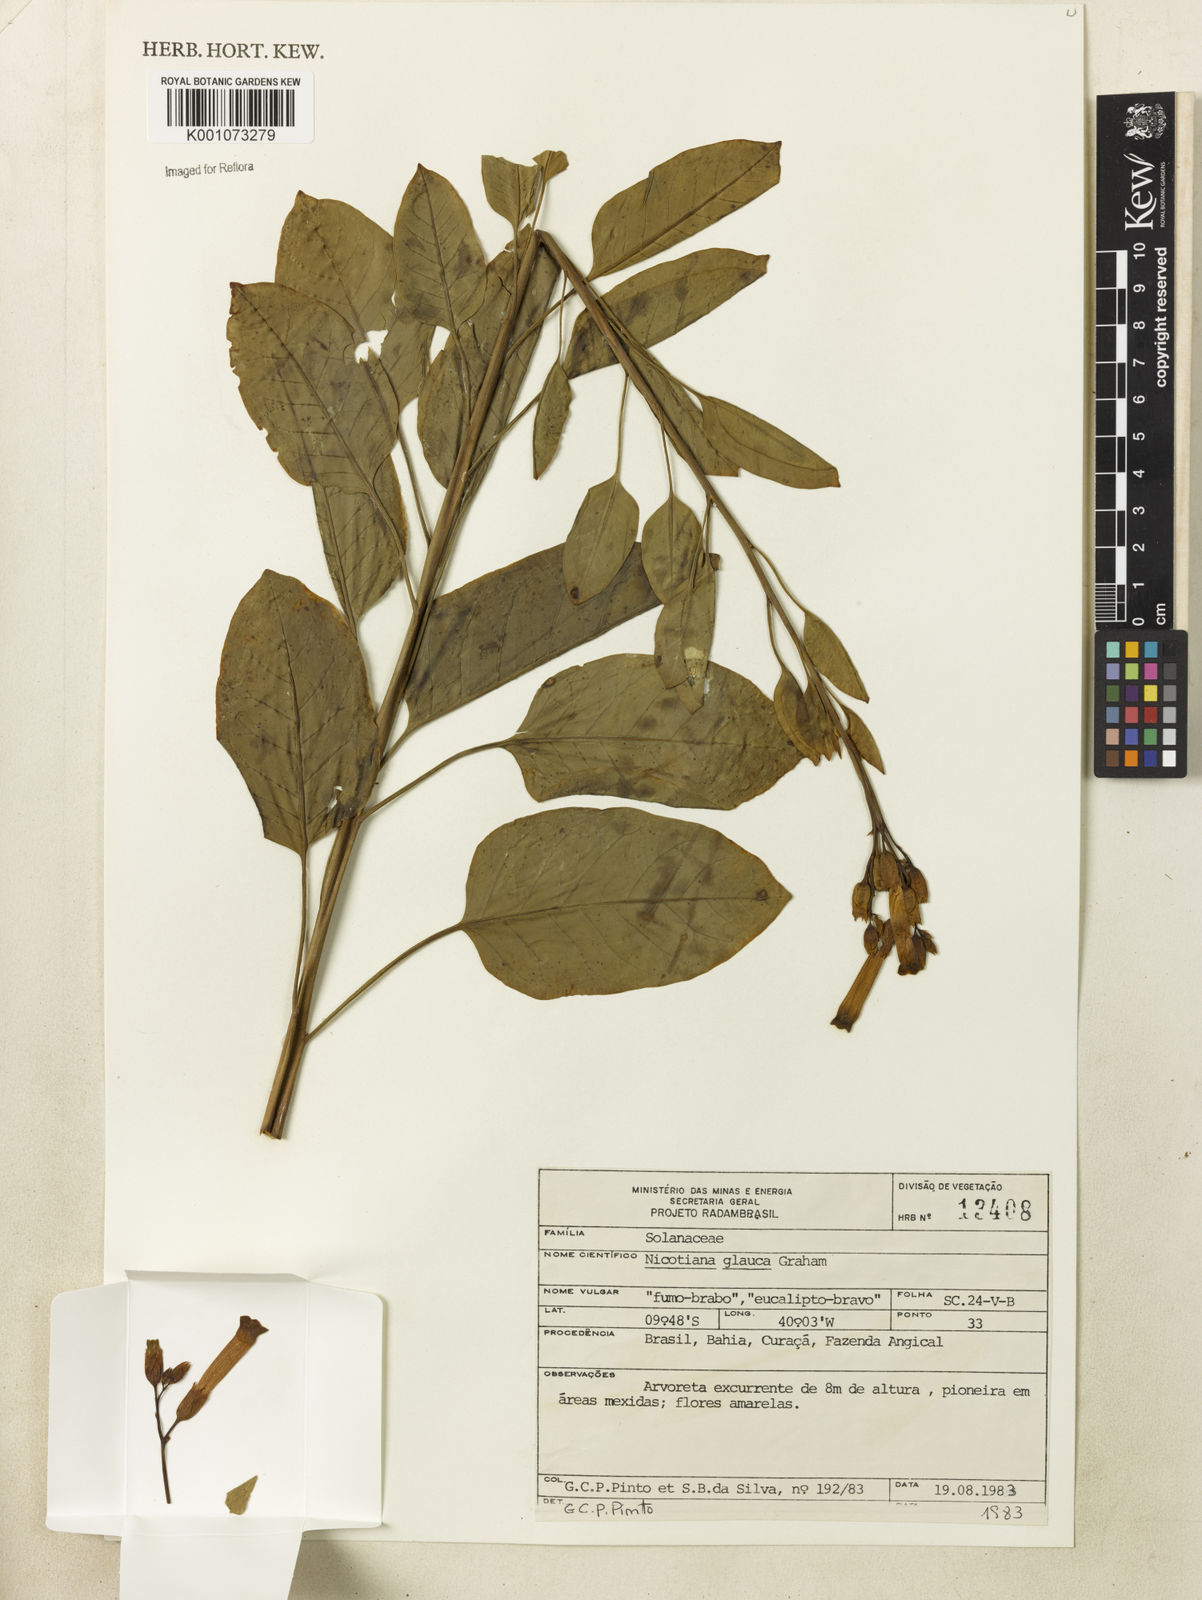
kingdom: Plantae
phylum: Tracheophyta
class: Magnoliopsida
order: Solanales
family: Solanaceae
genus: Nicotiana
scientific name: Nicotiana glauca
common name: Tree tobacco
